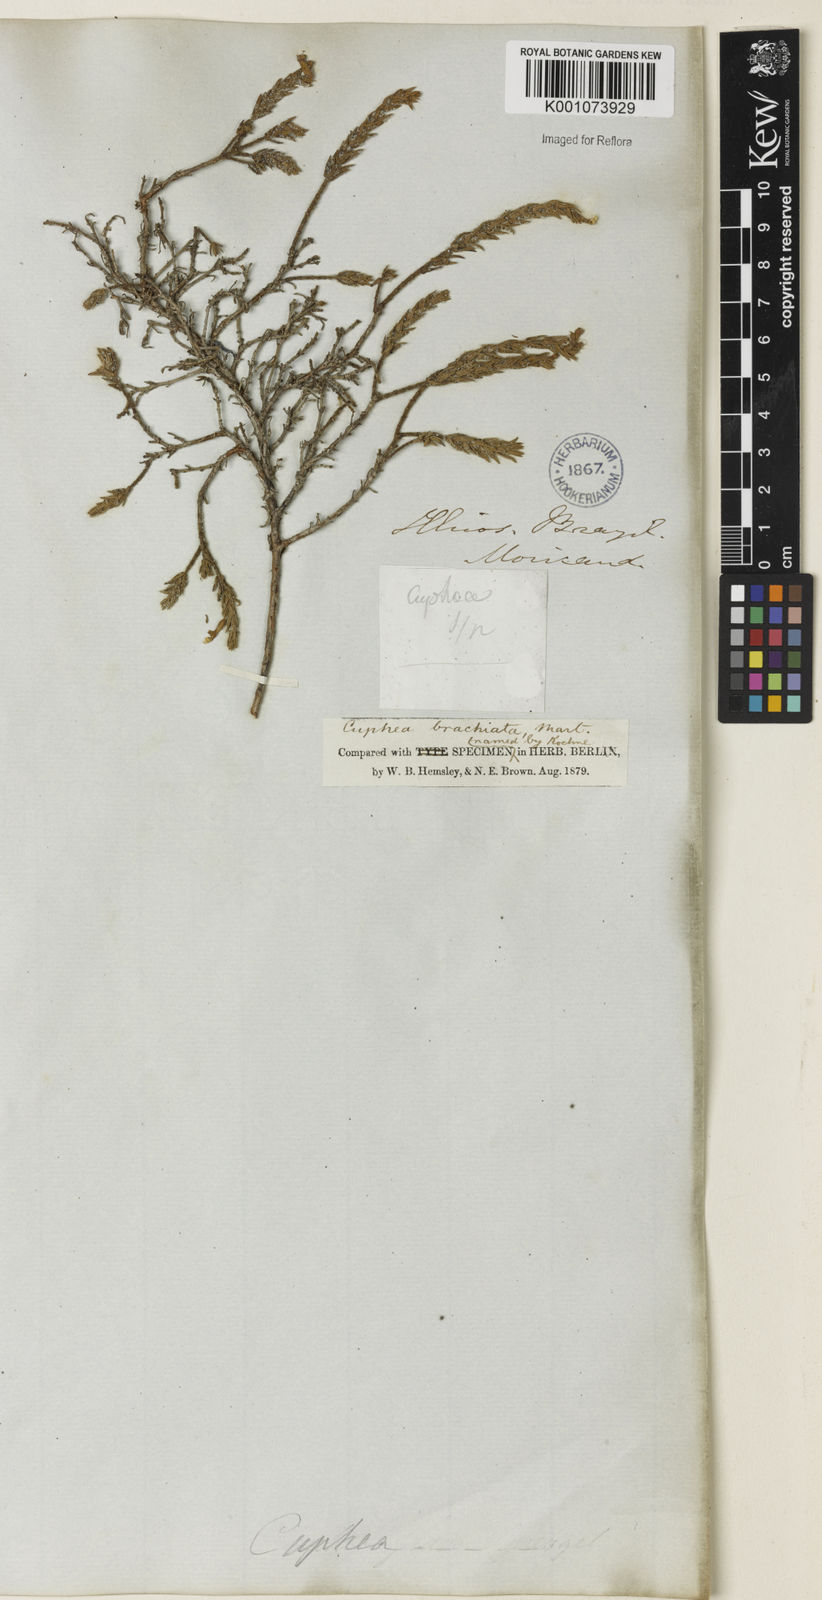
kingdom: Plantae
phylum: Tracheophyta
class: Magnoliopsida
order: Myrtales
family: Lythraceae
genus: Cuphea
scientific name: Cuphea brachiata
